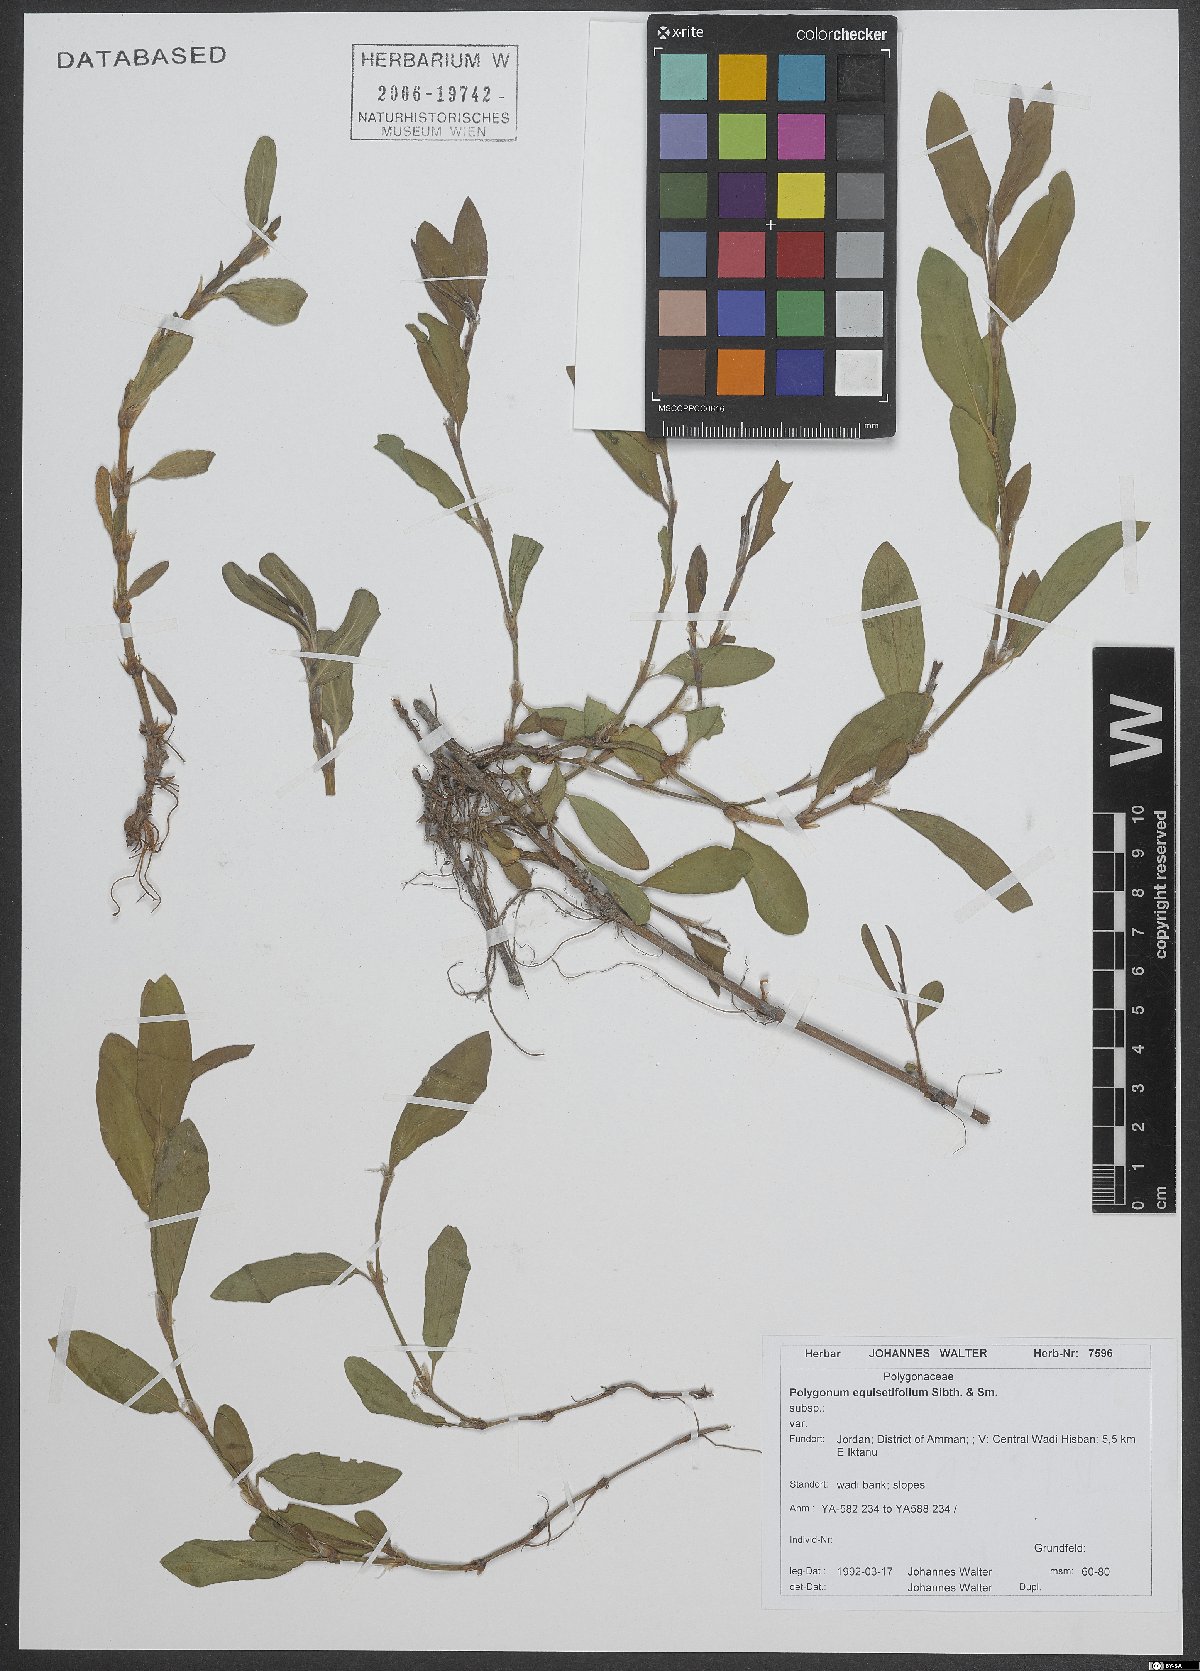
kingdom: Plantae
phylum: Tracheophyta
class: Magnoliopsida
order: Caryophyllales
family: Polygonaceae
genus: Polygonum
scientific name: Polygonum equisetiforme
